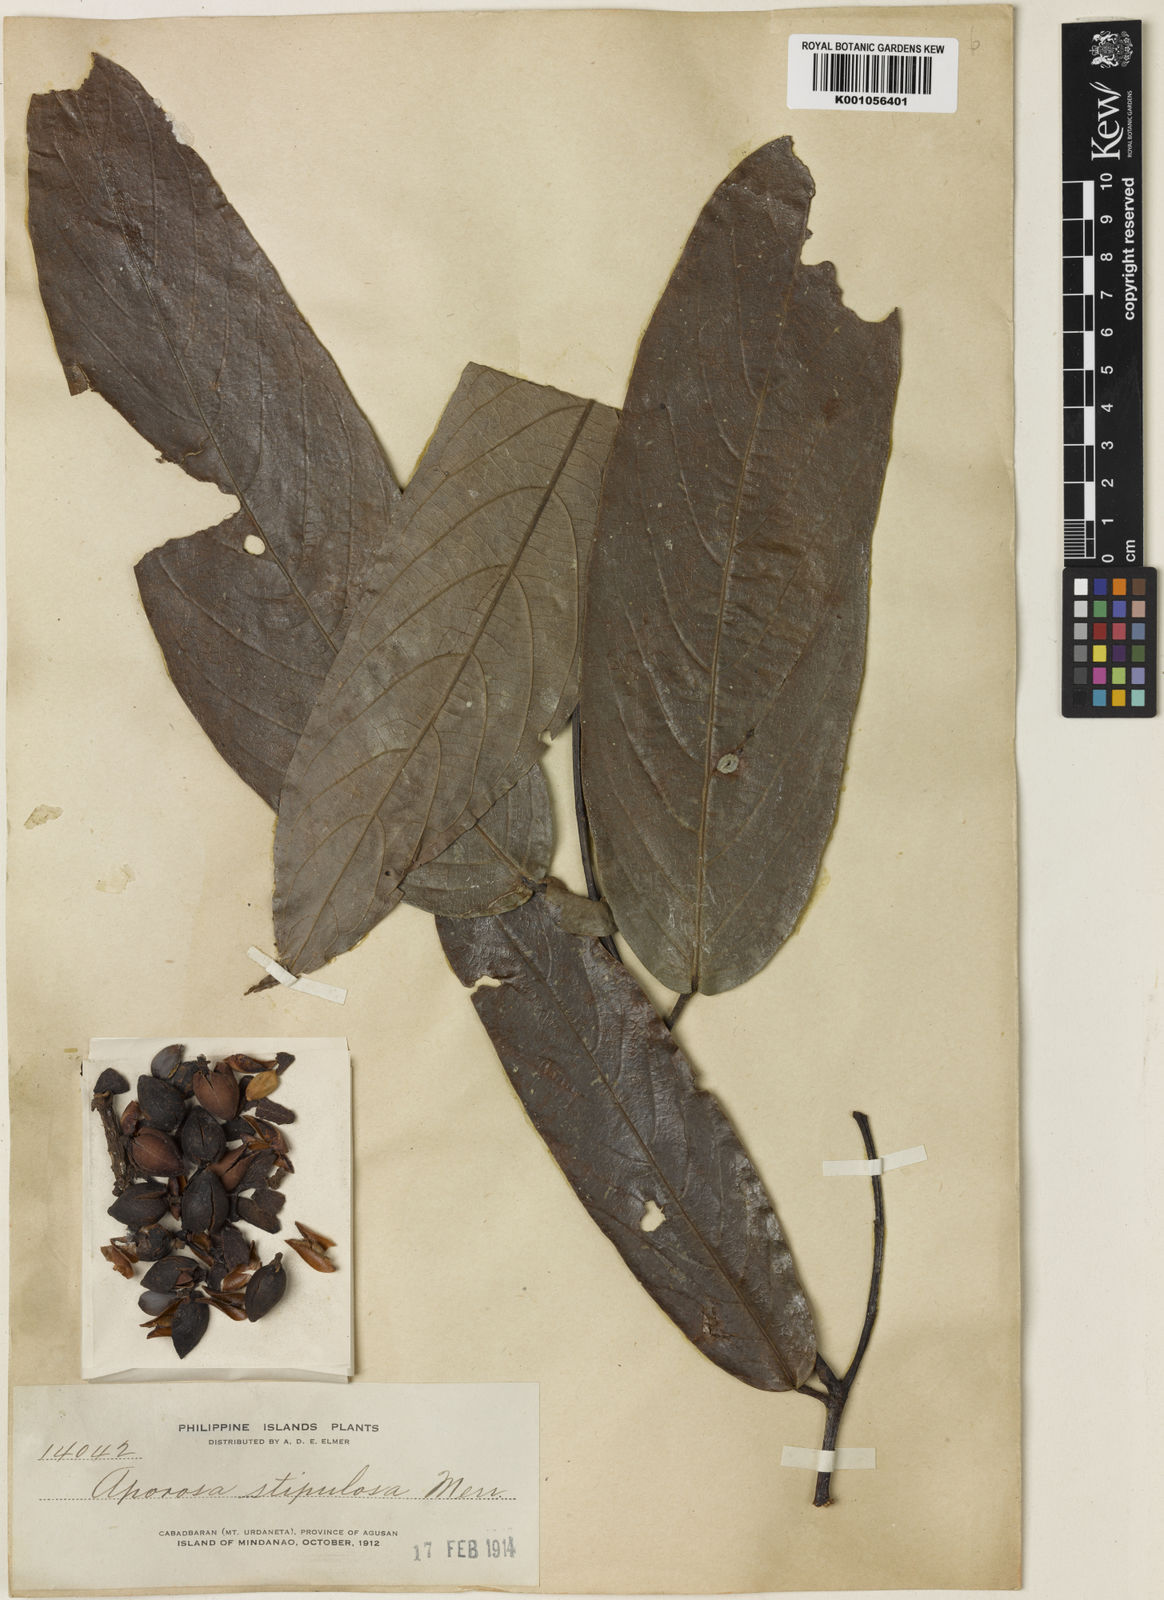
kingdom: Plantae
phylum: Tracheophyta
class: Magnoliopsida
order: Malpighiales
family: Phyllanthaceae
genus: Aporosa
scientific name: Aporosa benthamiana
